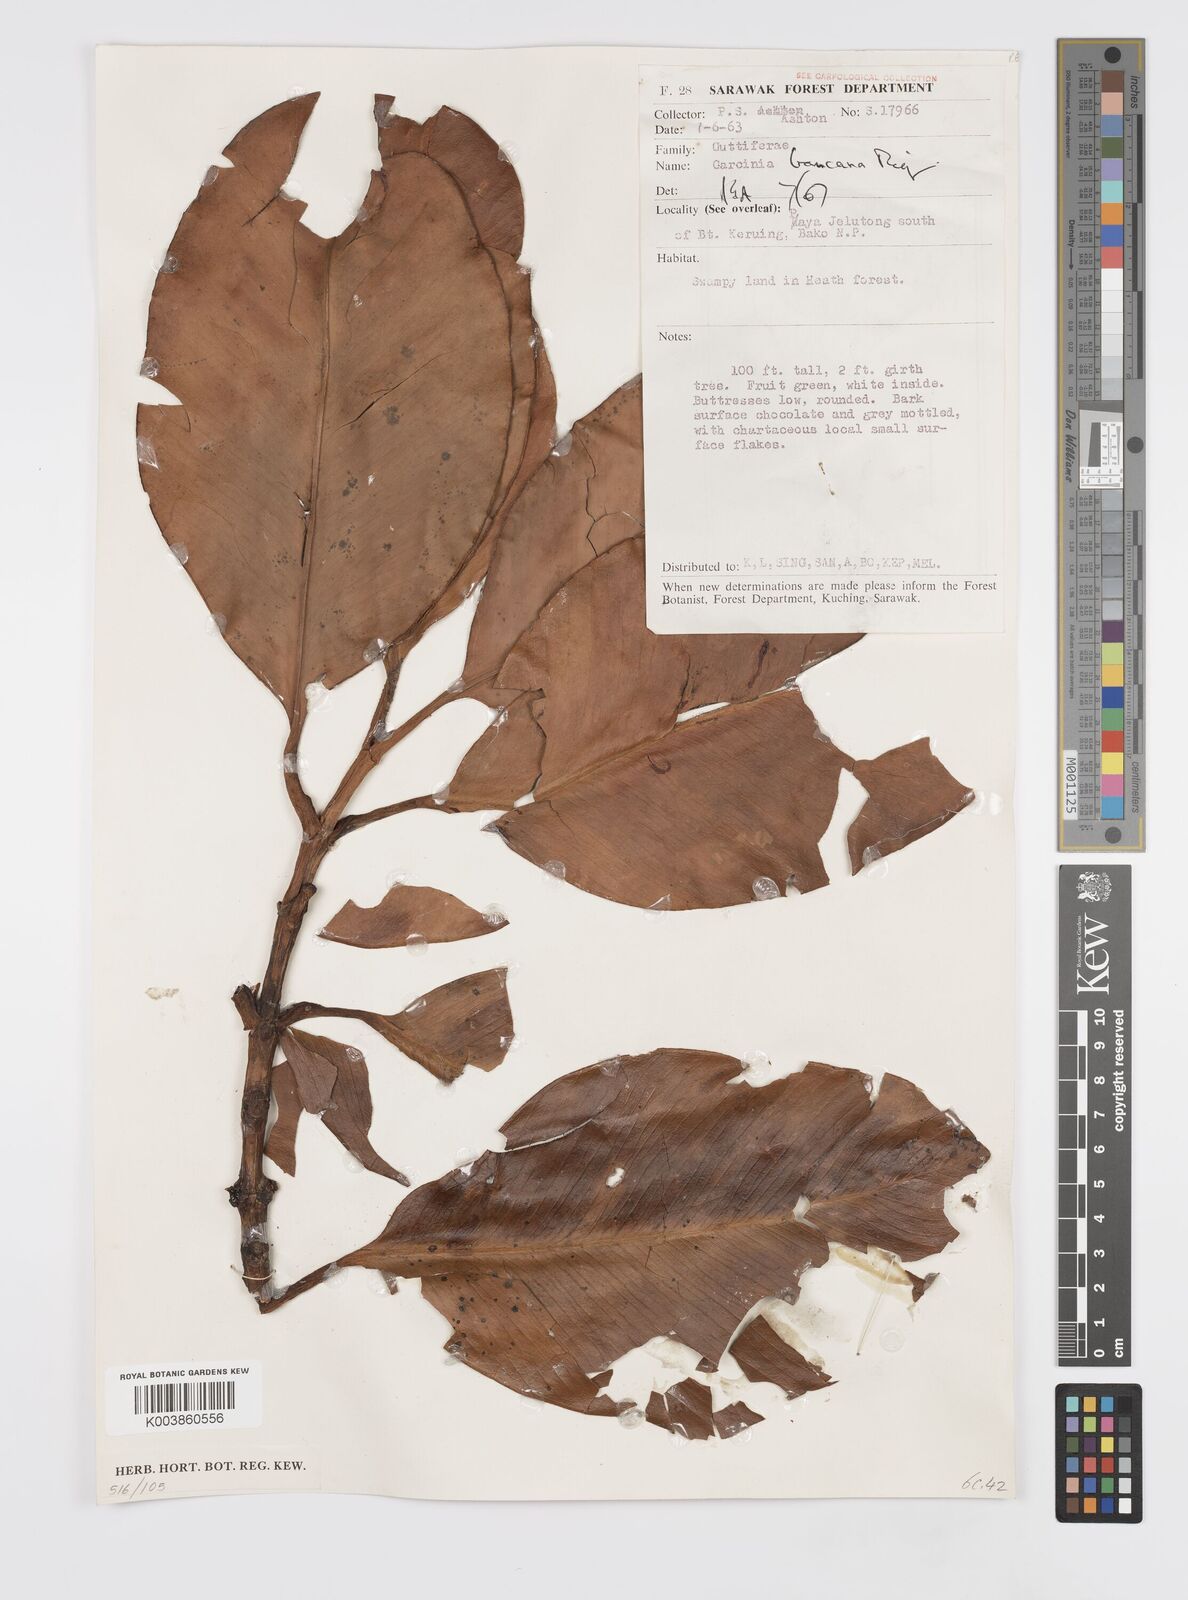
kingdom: Plantae
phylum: Tracheophyta
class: Magnoliopsida
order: Malpighiales
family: Clusiaceae
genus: Garcinia
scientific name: Garcinia bancana
